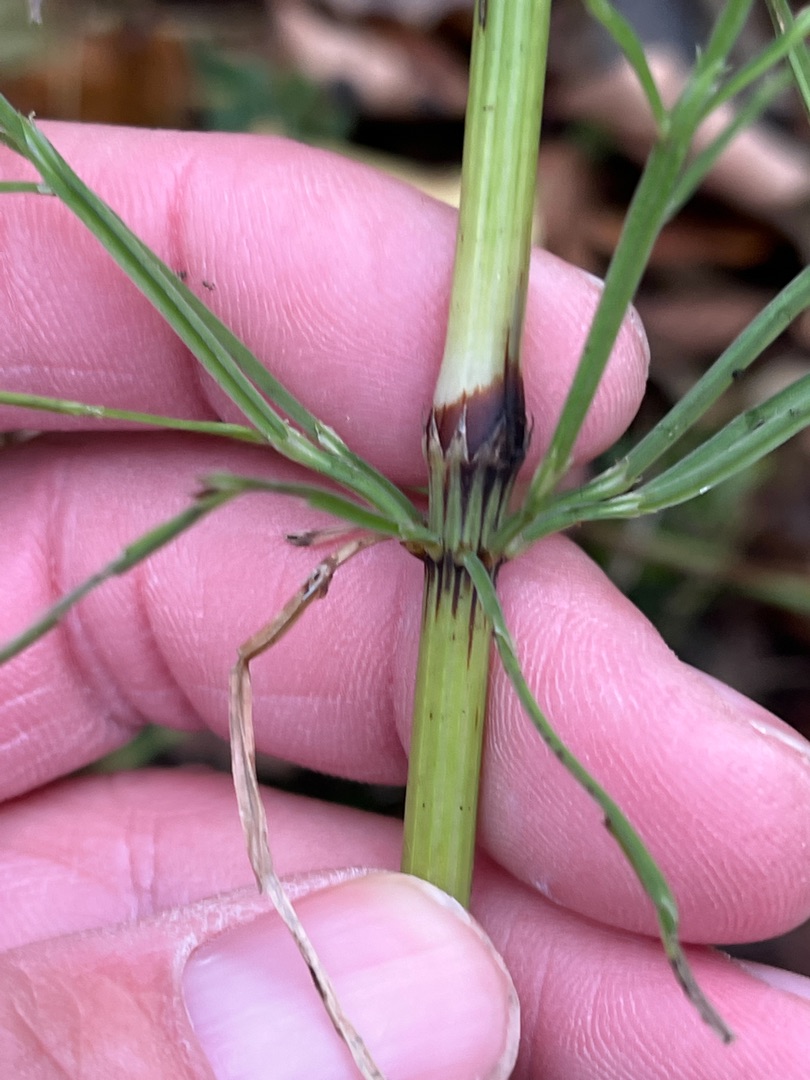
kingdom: Plantae
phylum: Tracheophyta
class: Polypodiopsida
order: Equisetales
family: Equisetaceae
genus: Equisetum
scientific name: Equisetum arvense
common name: Ager-padderok
